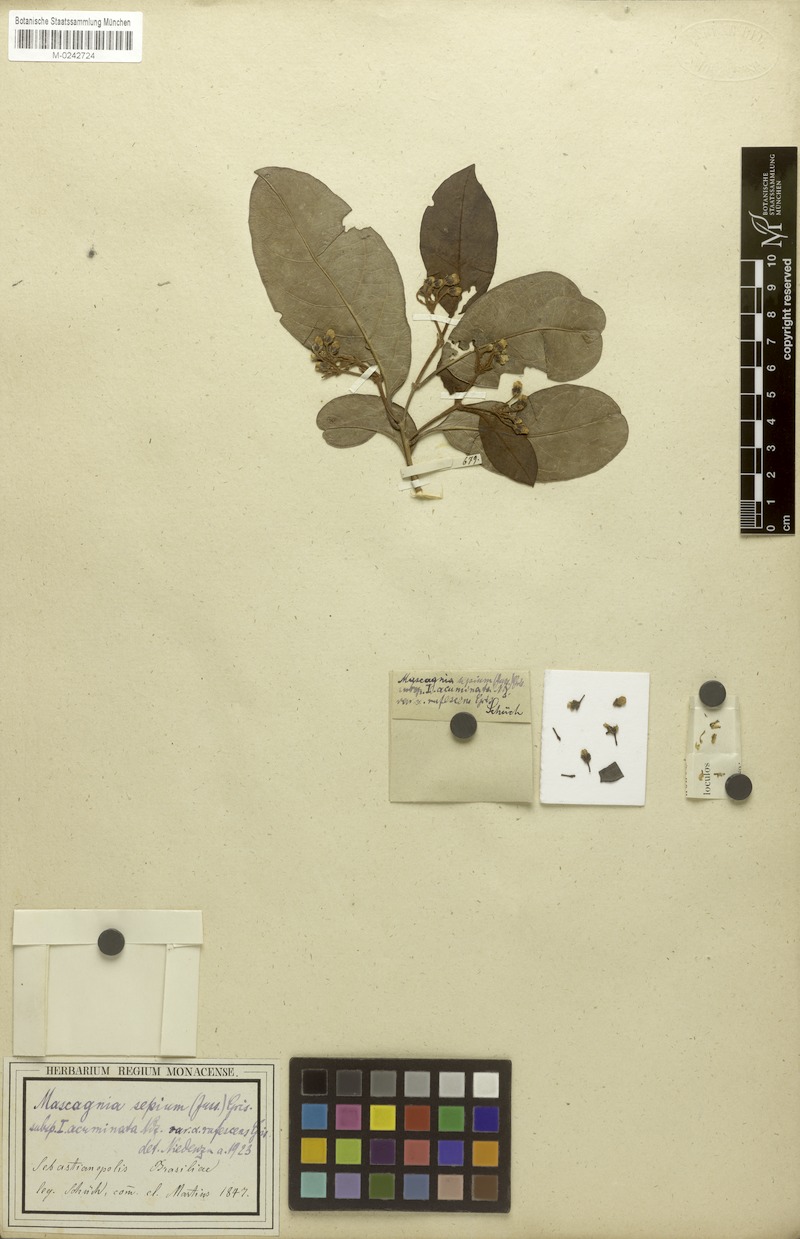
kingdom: Plantae
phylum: Tracheophyta
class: Magnoliopsida
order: Malpighiales
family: Malpighiaceae
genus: Mascagnia
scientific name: Mascagnia sepium
